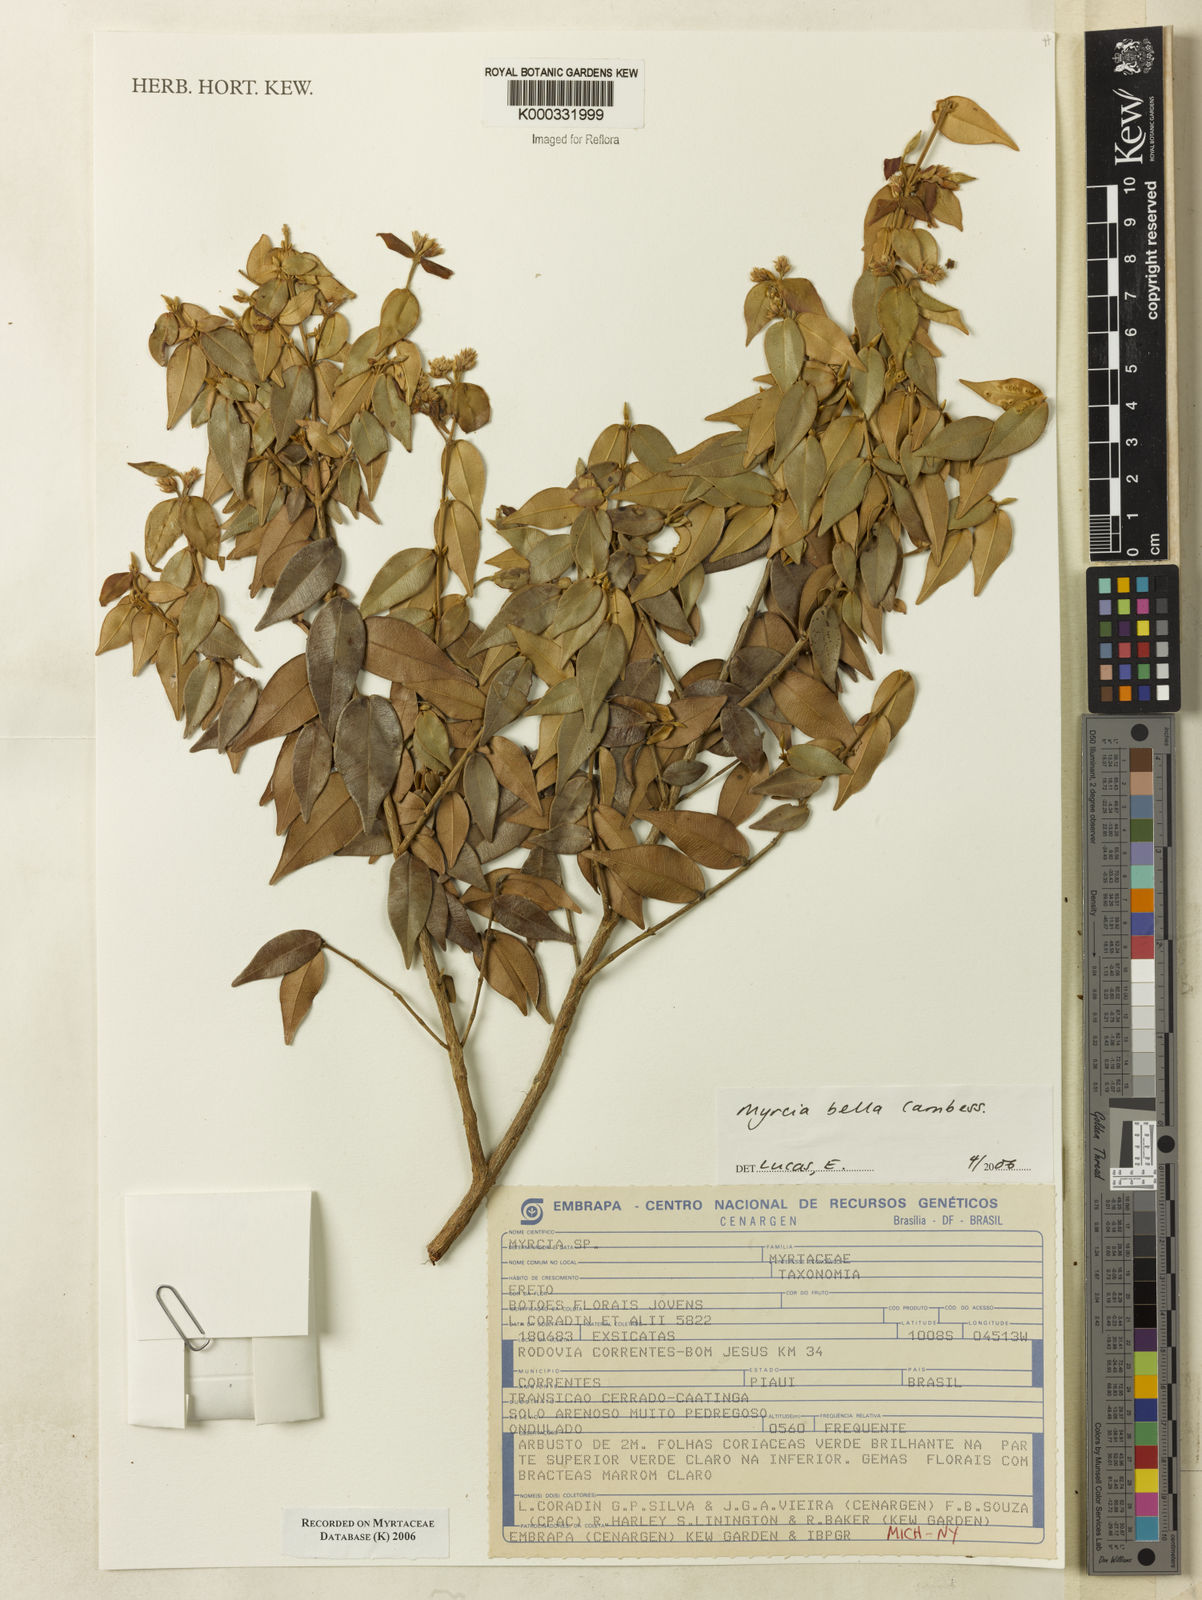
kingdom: Plantae
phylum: Tracheophyta
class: Magnoliopsida
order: Myrtales
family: Myrtaceae
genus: Myrcia
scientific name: Myrcia bella
